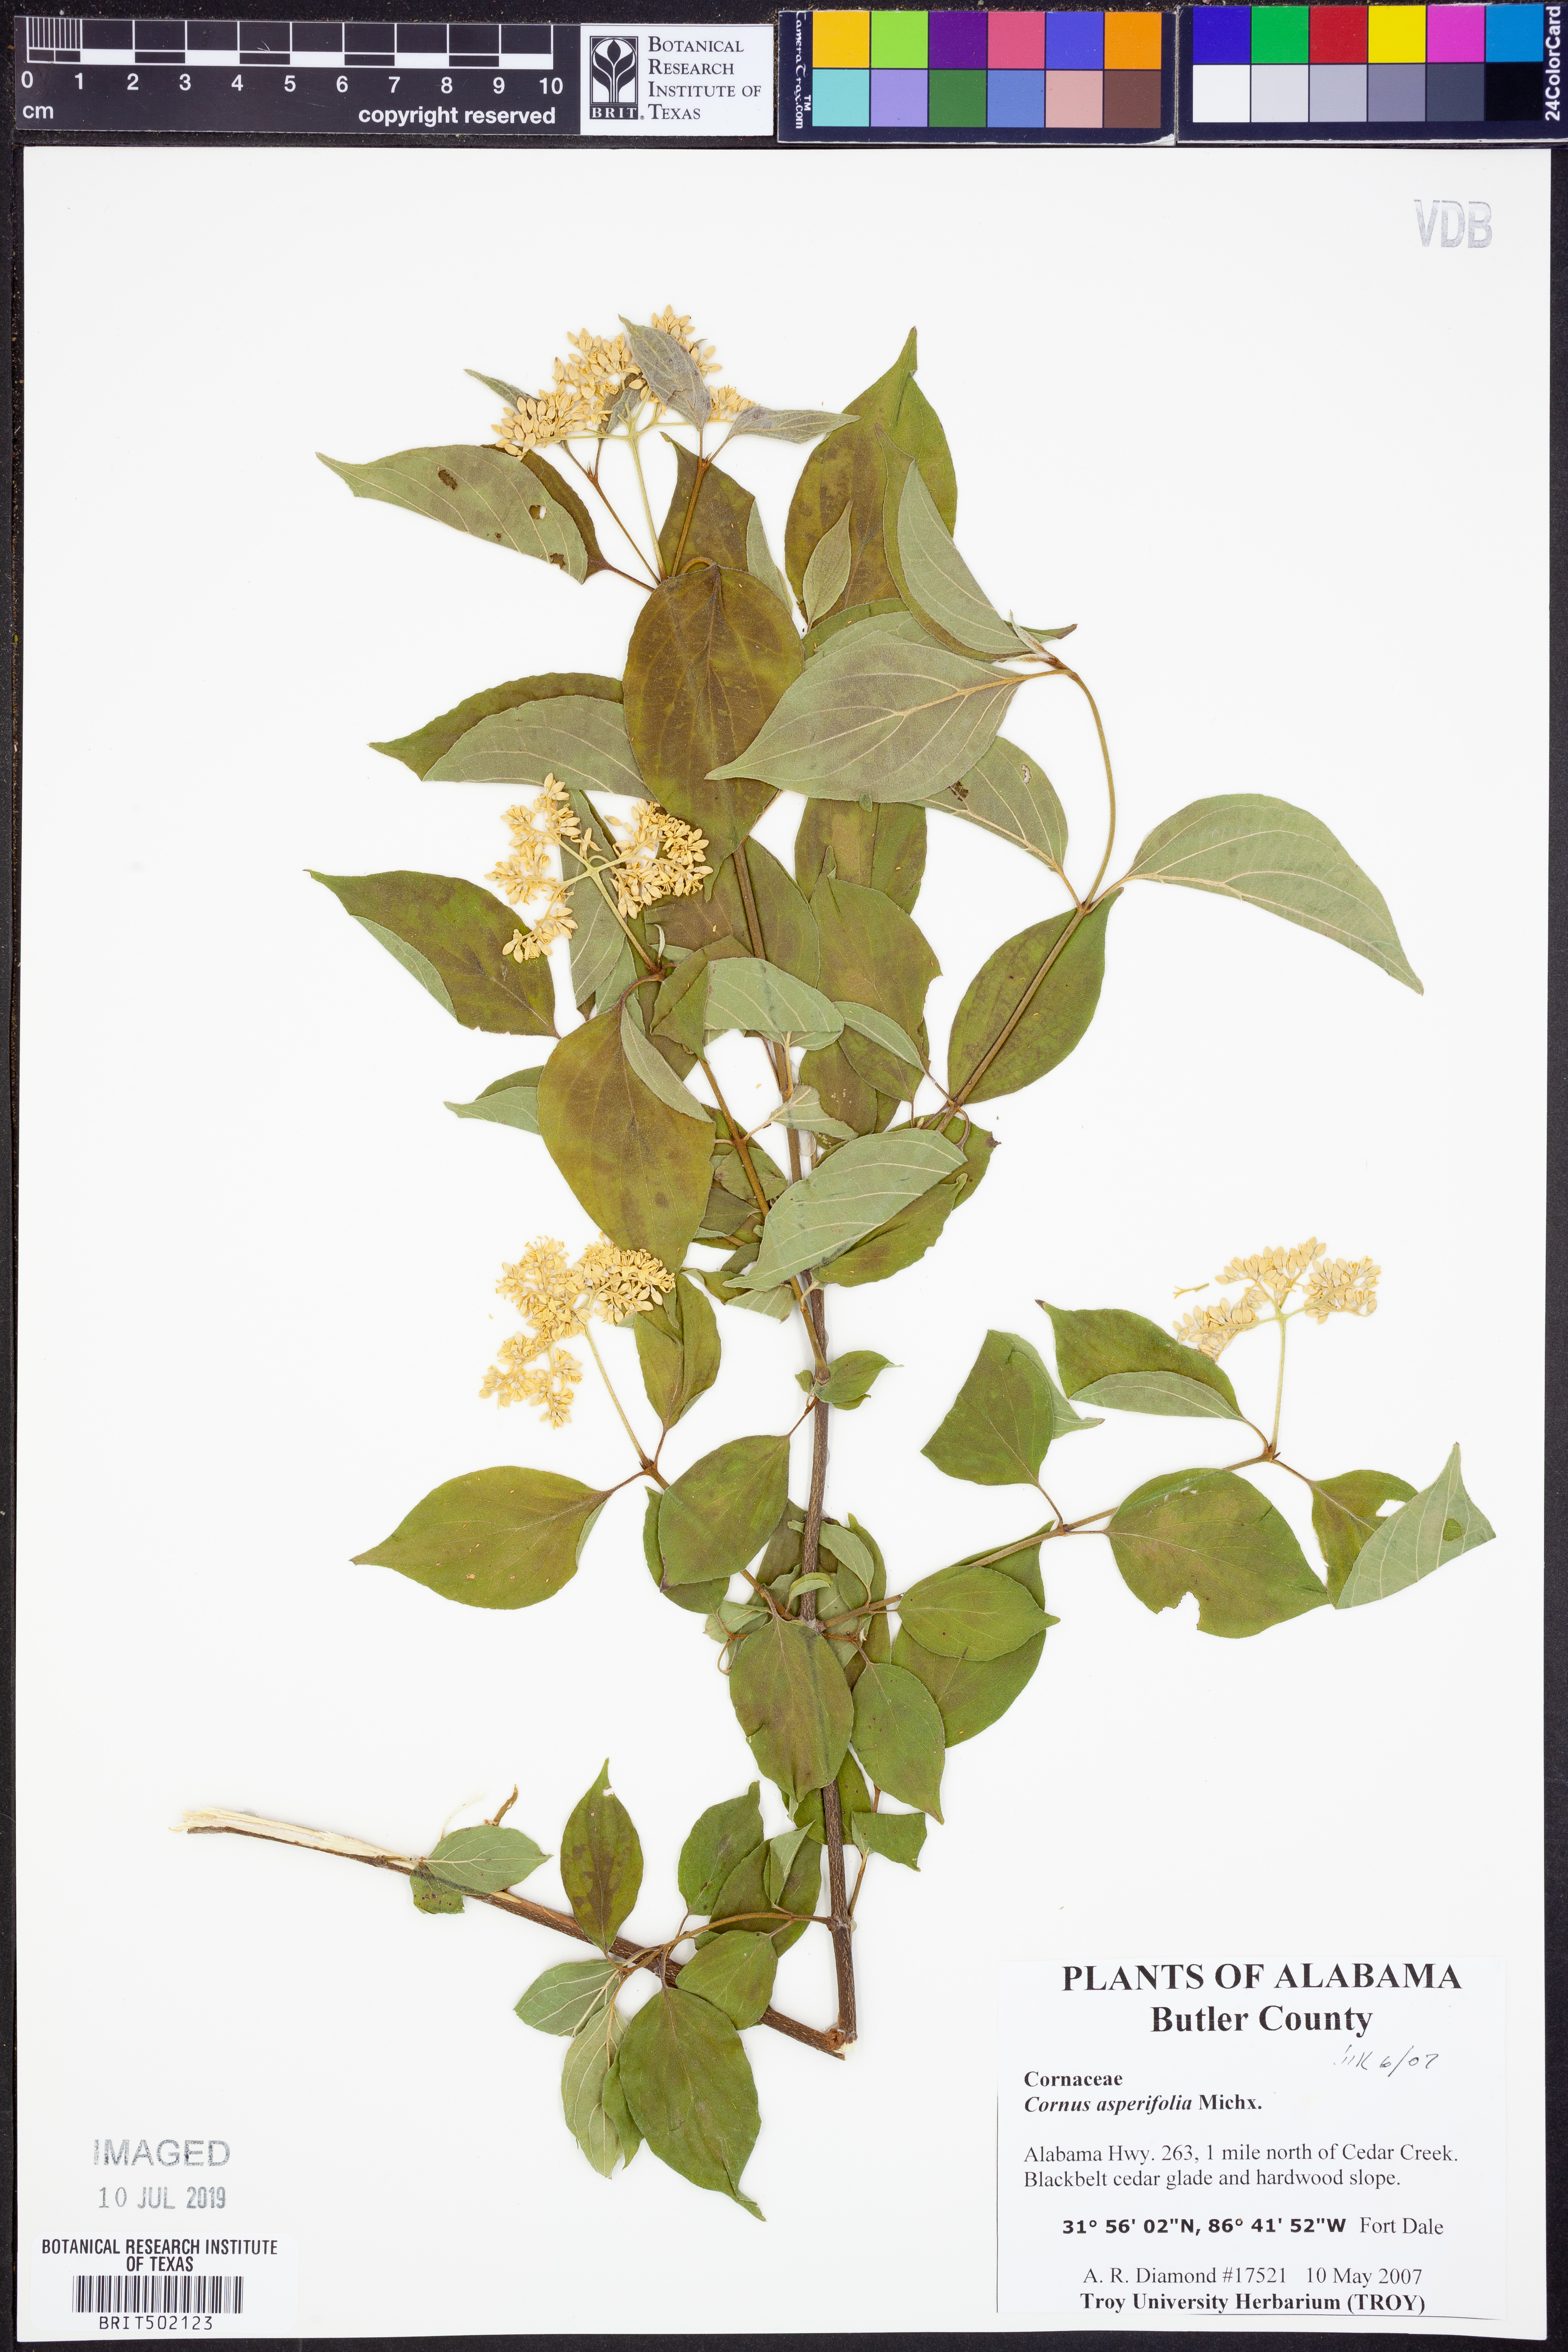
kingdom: Plantae
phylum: Tracheophyta
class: Magnoliopsida
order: Cornales
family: Cornaceae
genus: Cornus
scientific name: Cornus asperifolia
